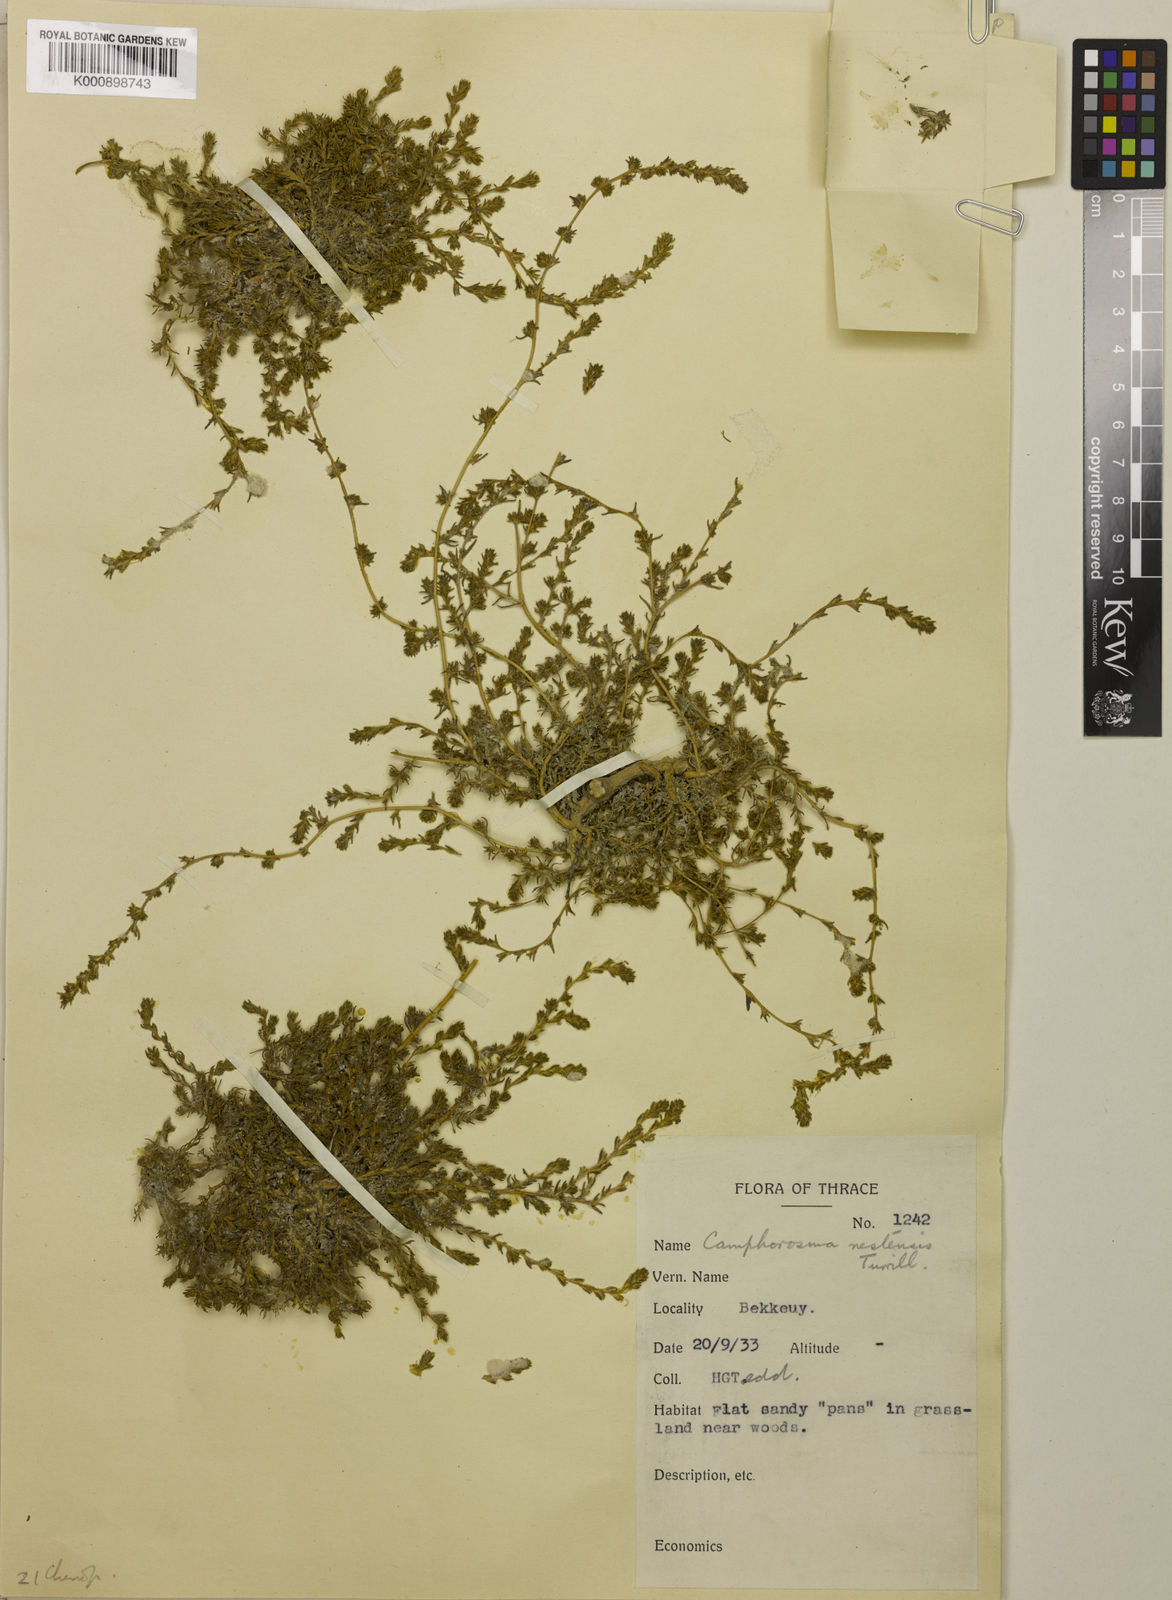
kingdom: Plantae
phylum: Tracheophyta
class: Magnoliopsida
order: Caryophyllales
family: Amaranthaceae
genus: Camphorosma
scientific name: Camphorosma monspeliaca
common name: Camphorfume
